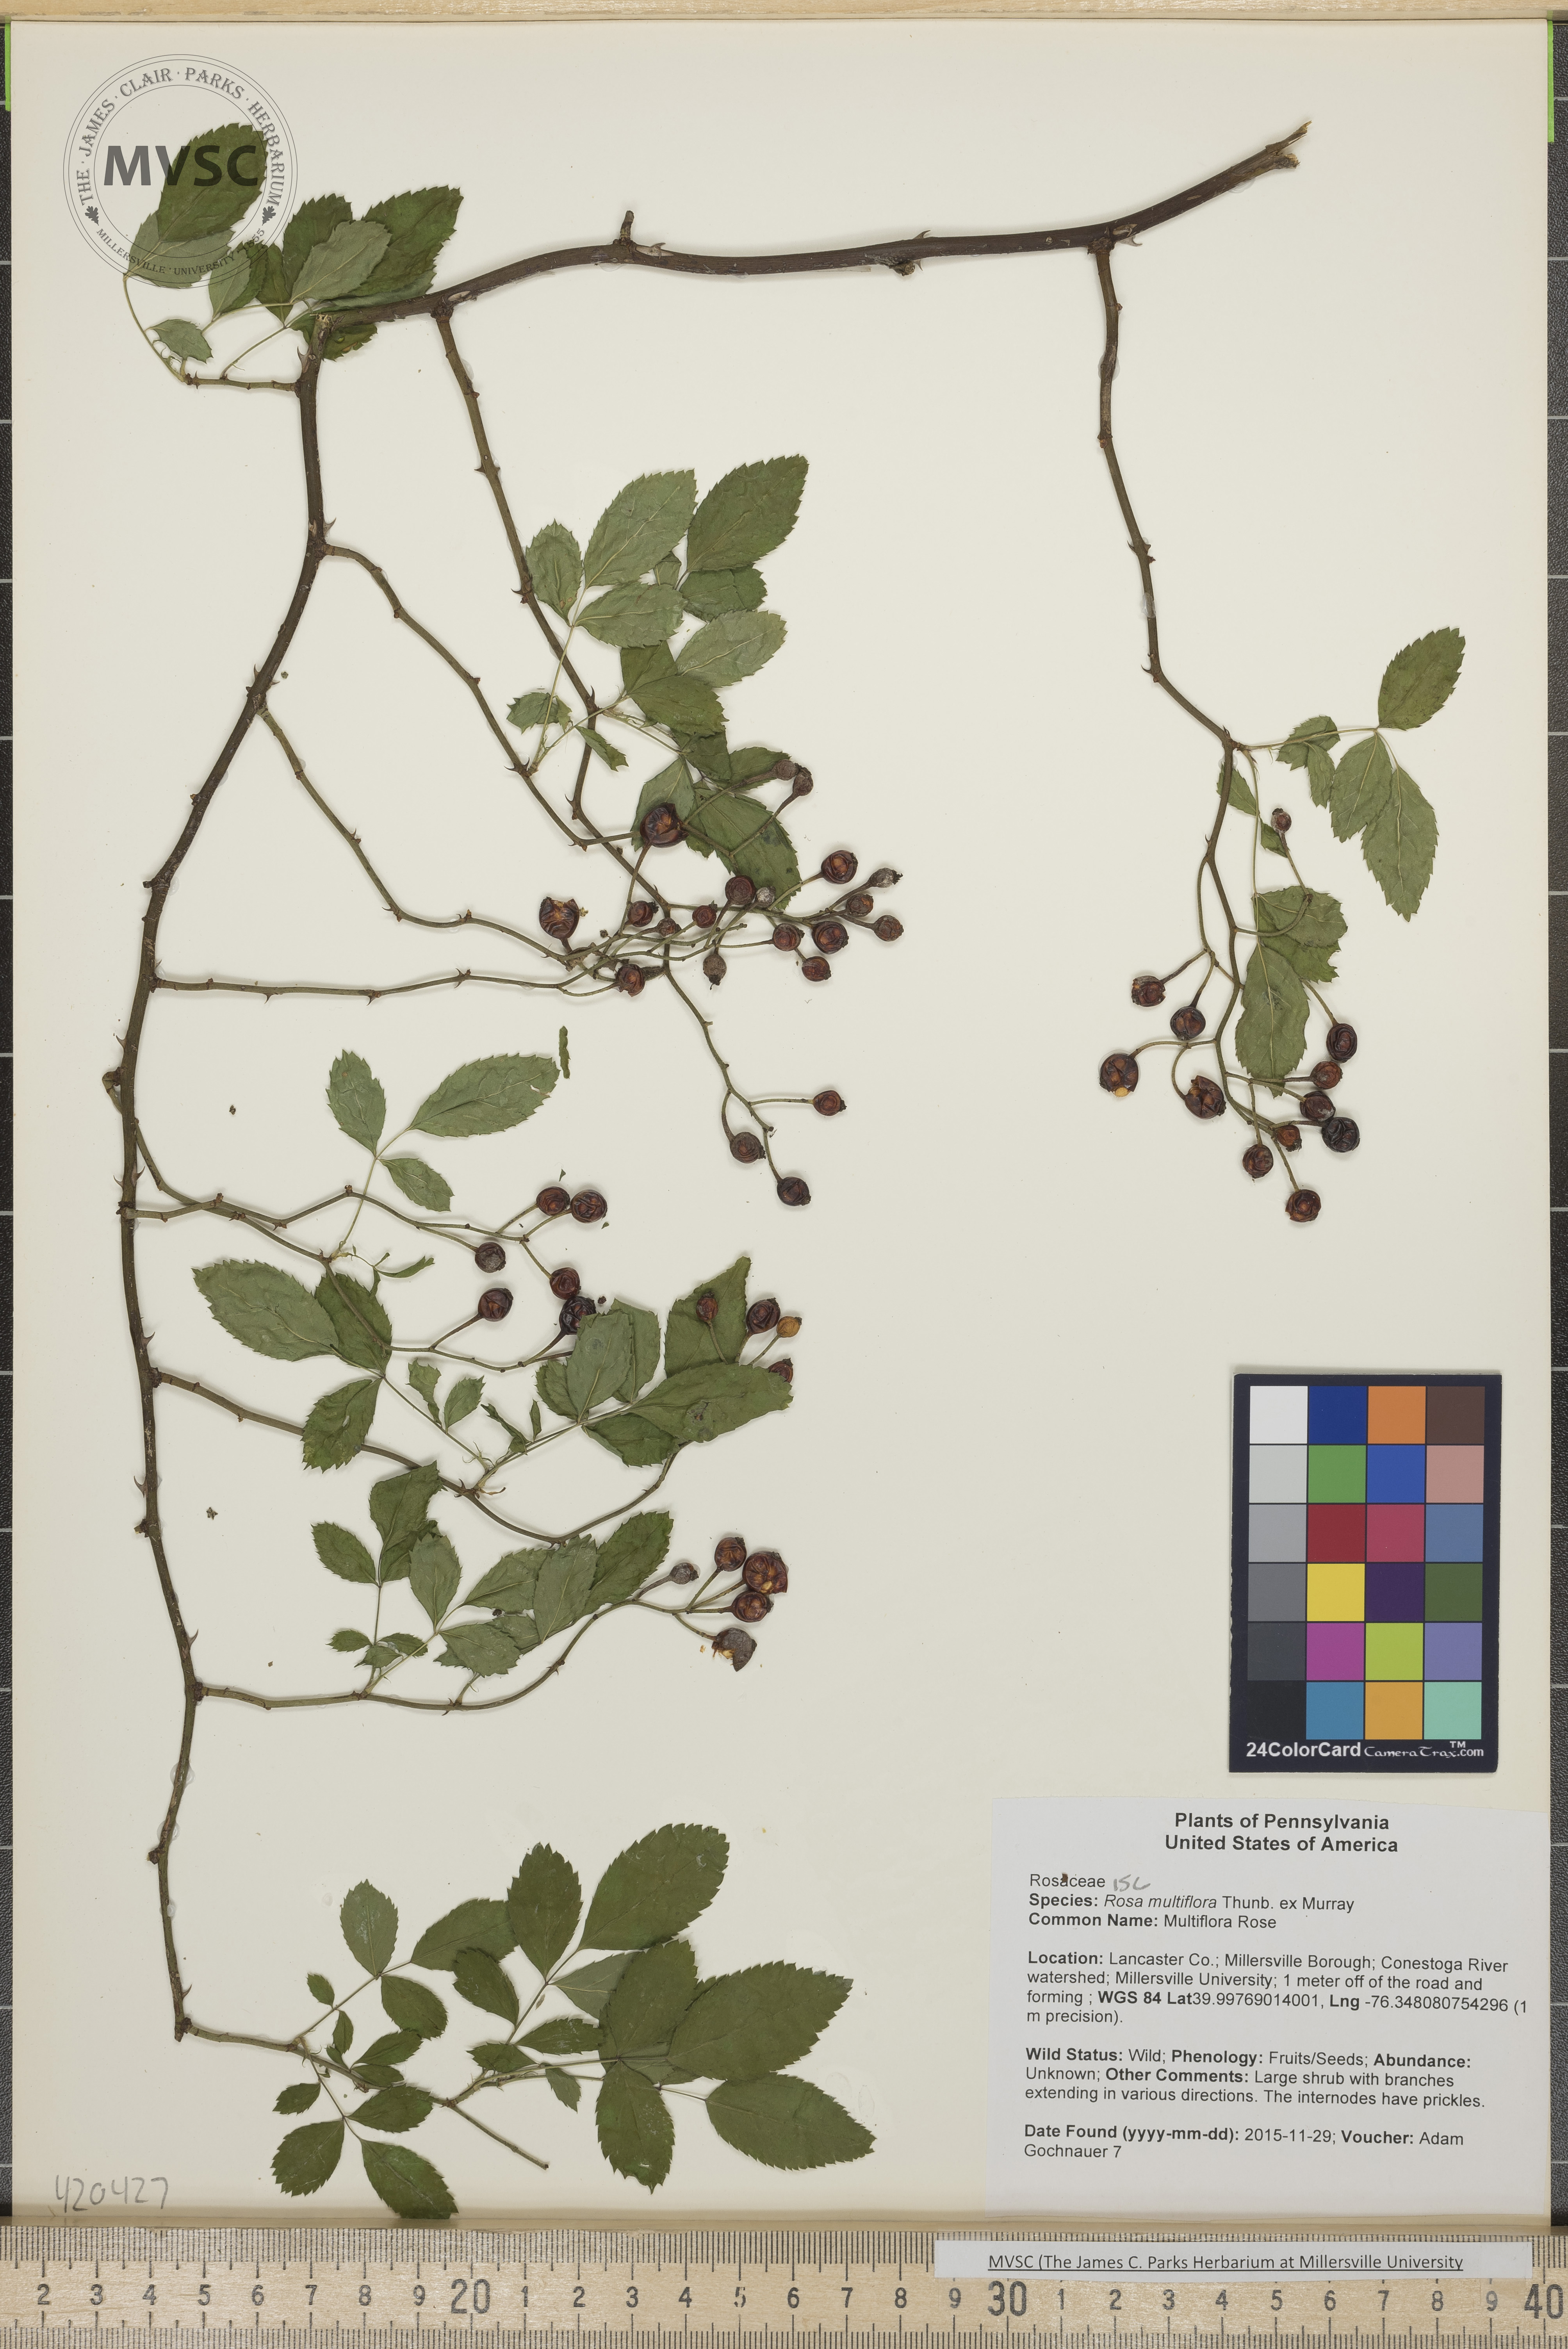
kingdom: Plantae
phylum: Tracheophyta
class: Magnoliopsida
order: Rosales
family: Rosaceae
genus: Rosa
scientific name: Rosa multiflora
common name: Multiflora Rose
